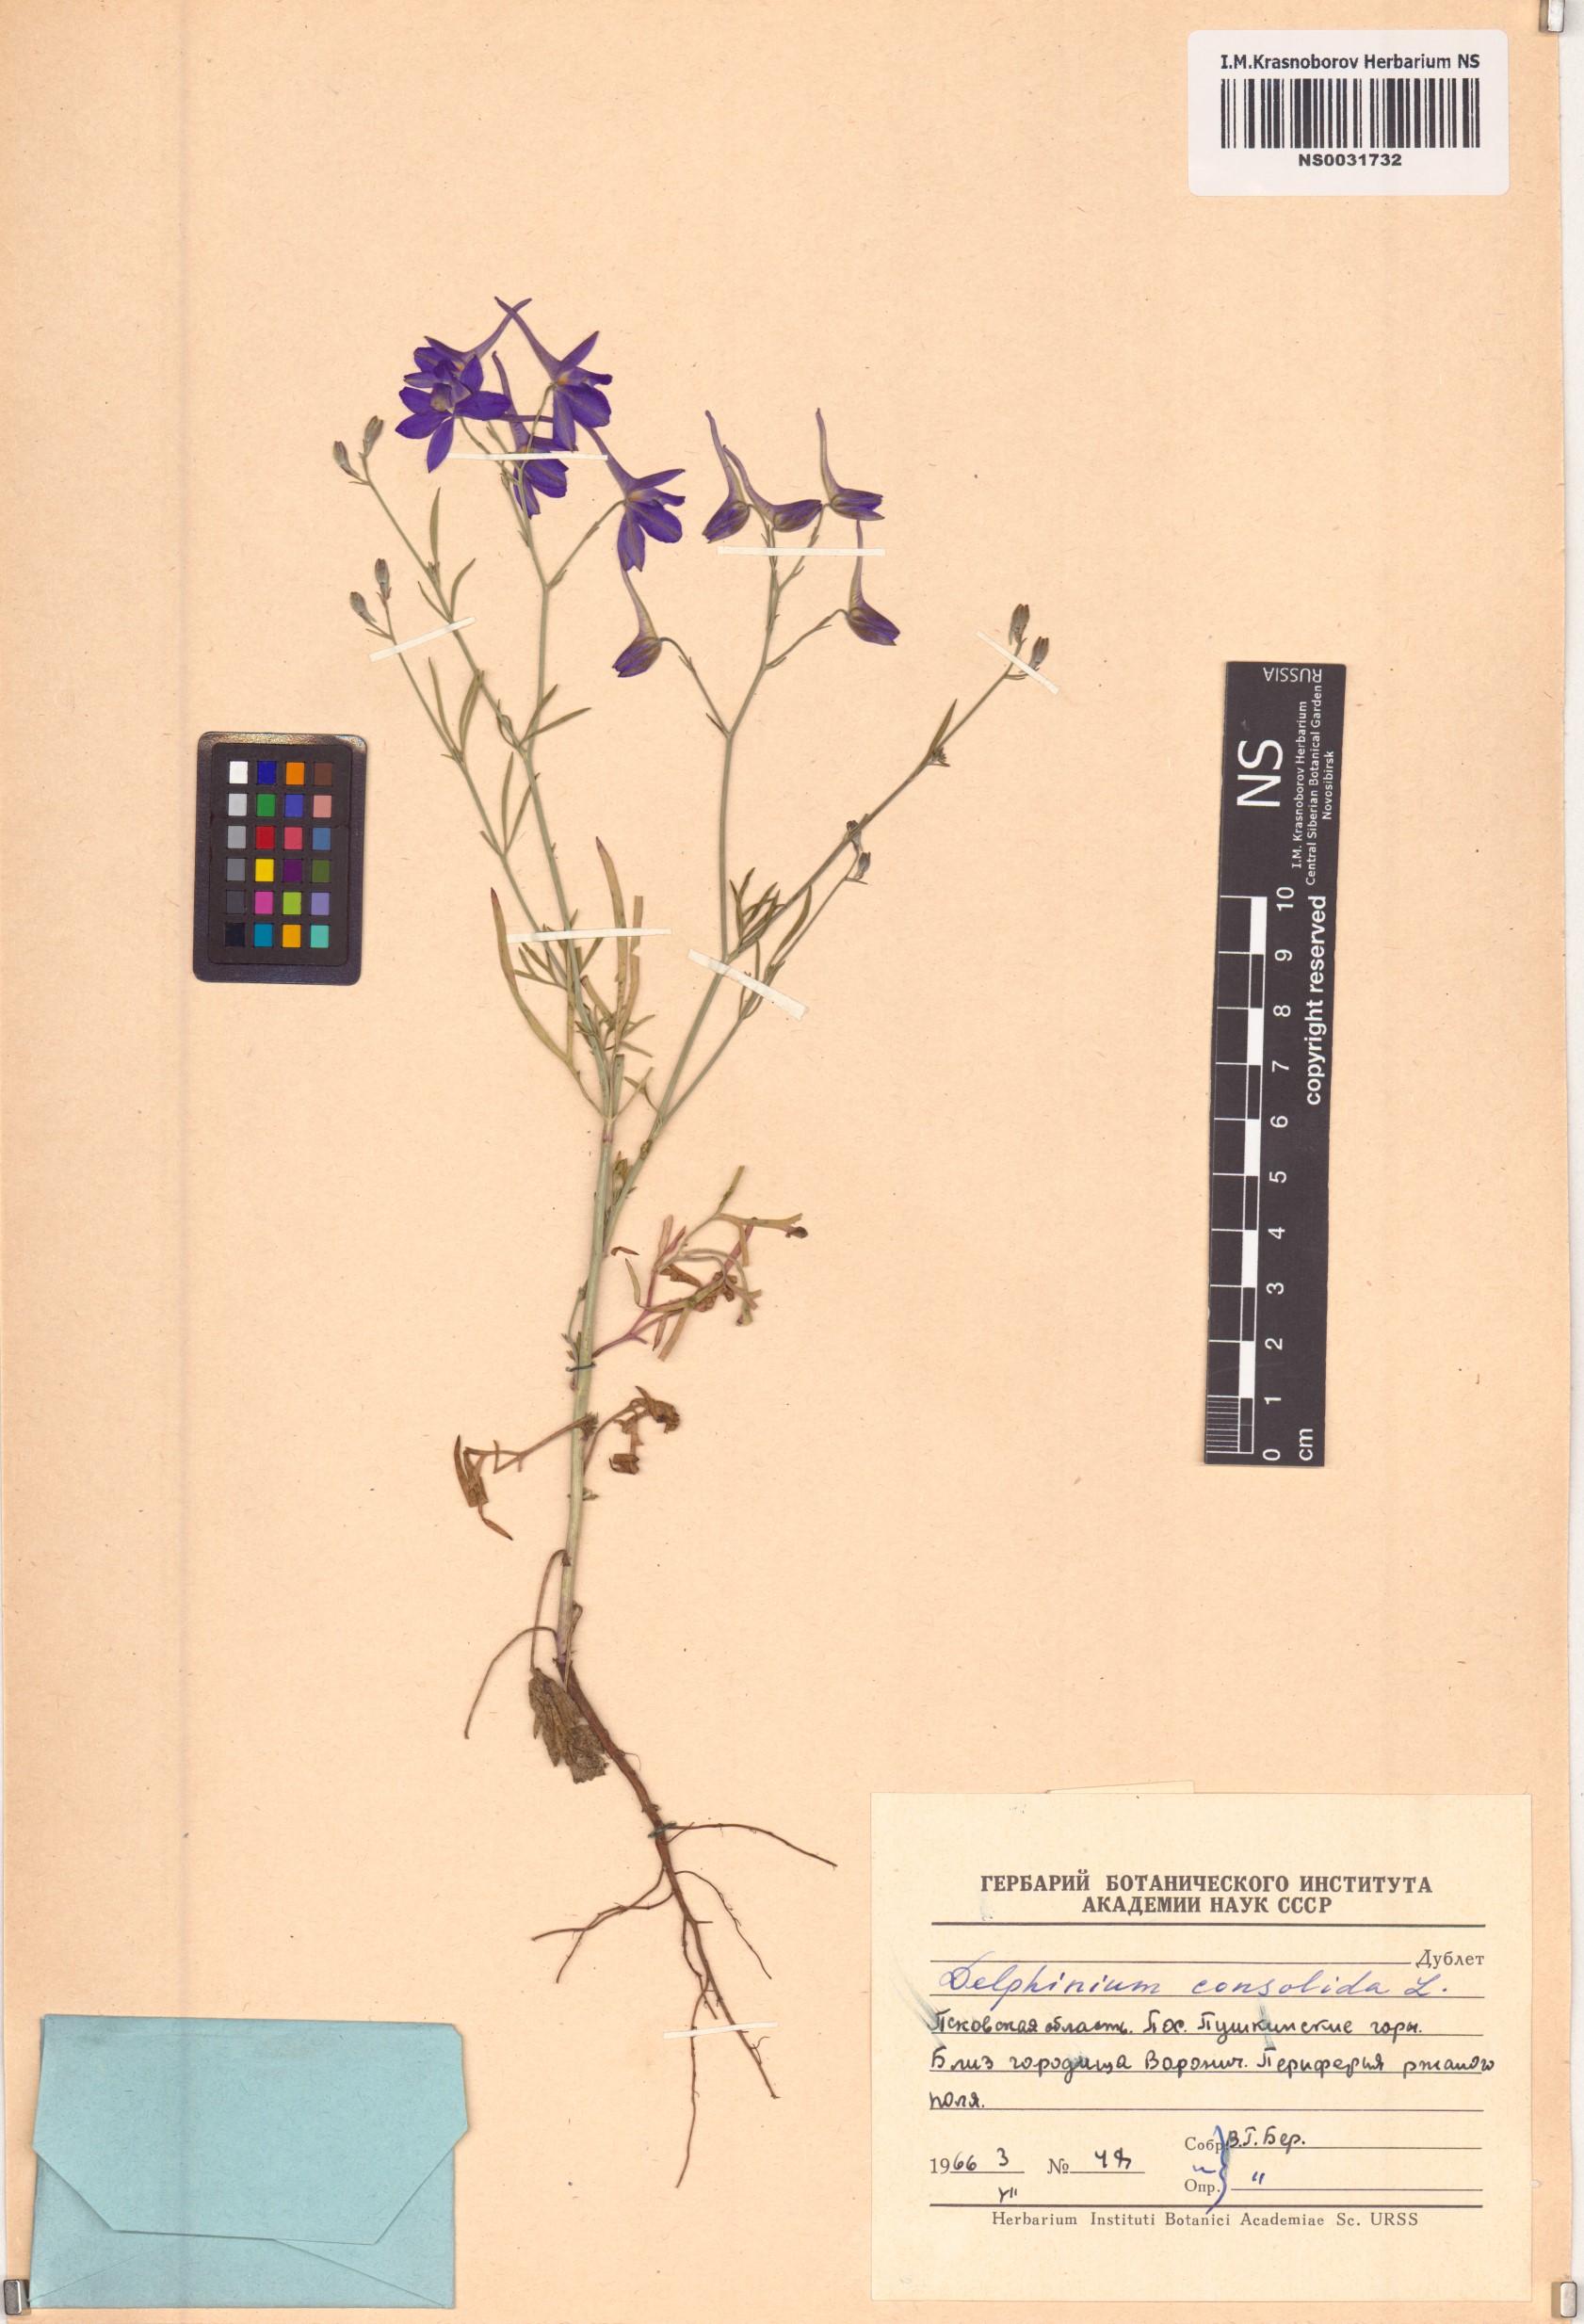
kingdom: Plantae
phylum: Tracheophyta
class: Magnoliopsida
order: Ranunculales
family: Ranunculaceae
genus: Delphinium
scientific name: Delphinium consolida
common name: Branching larkspur
